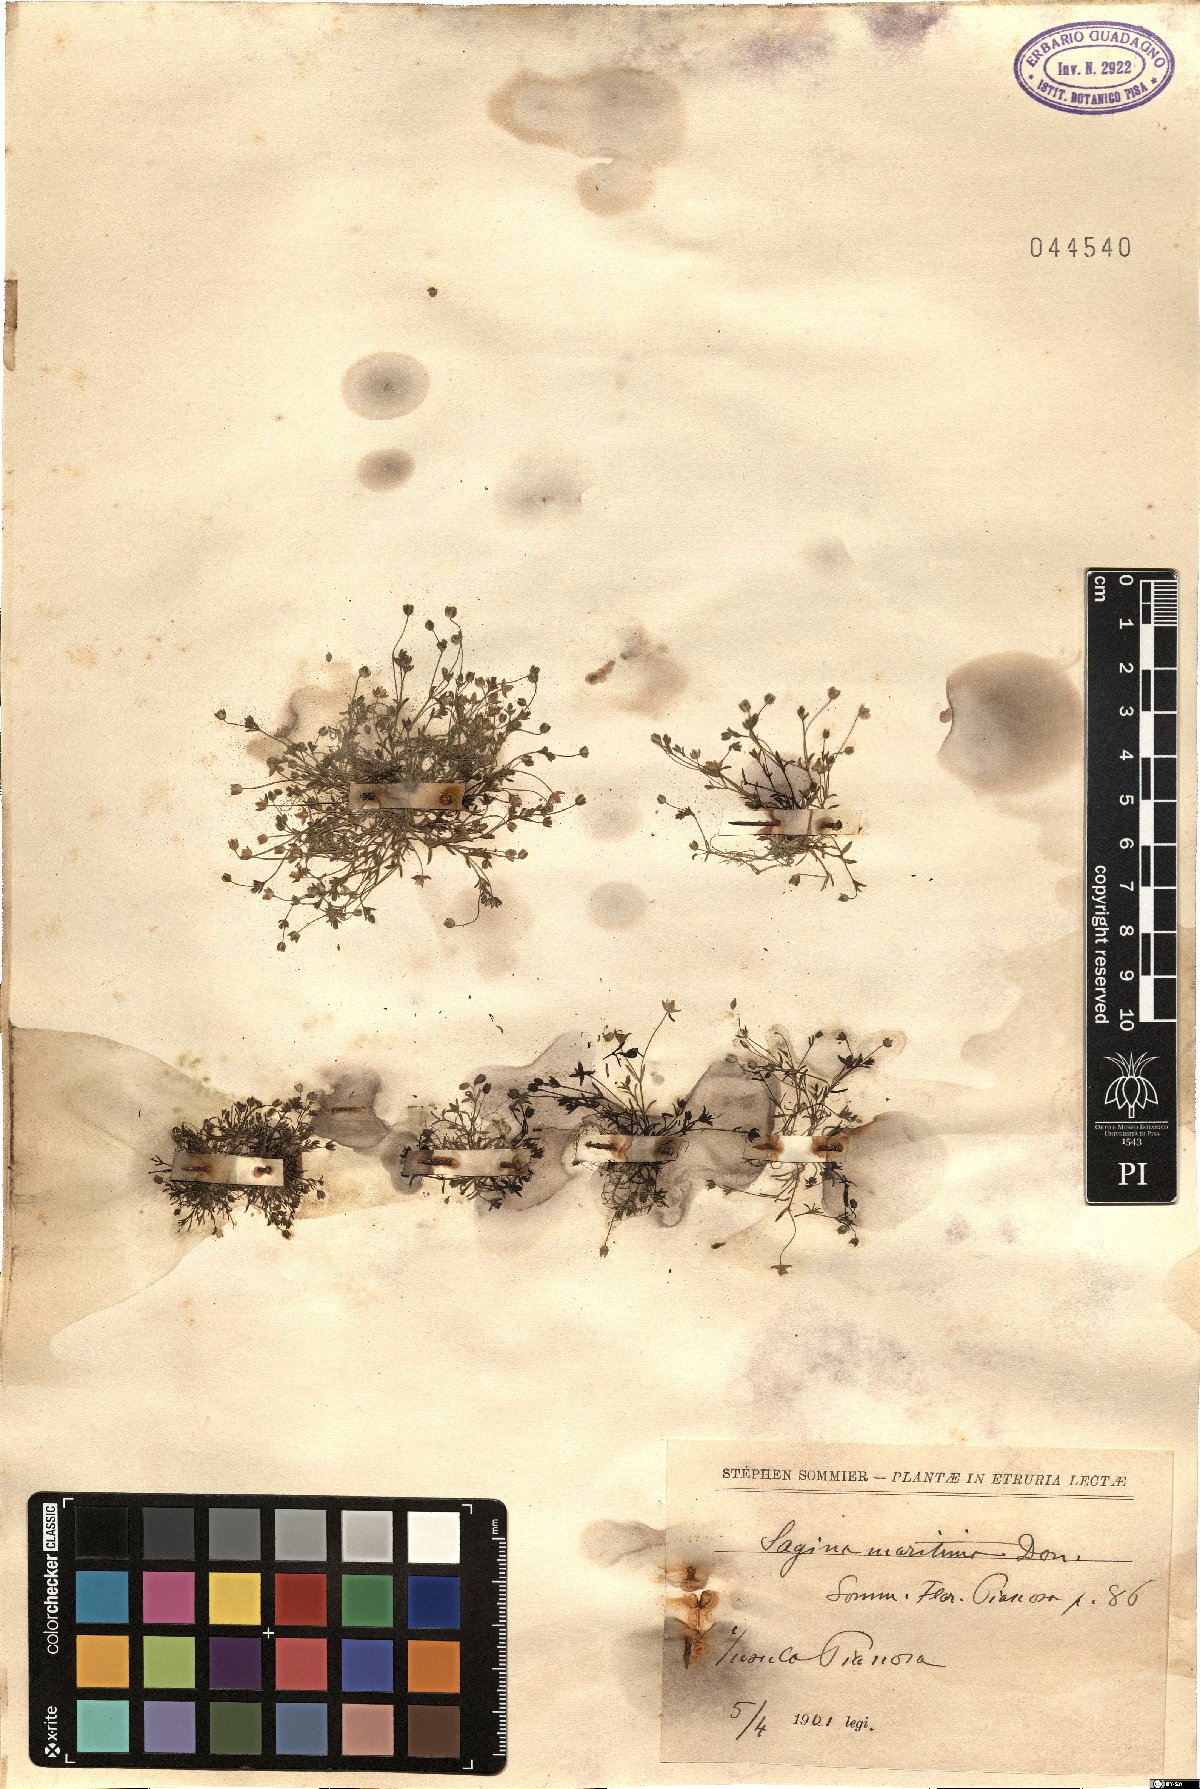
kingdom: Plantae
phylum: Tracheophyta
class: Magnoliopsida
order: Caryophyllales
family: Caryophyllaceae
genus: Sagina
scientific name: Sagina maritima
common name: Sea pearlwort
